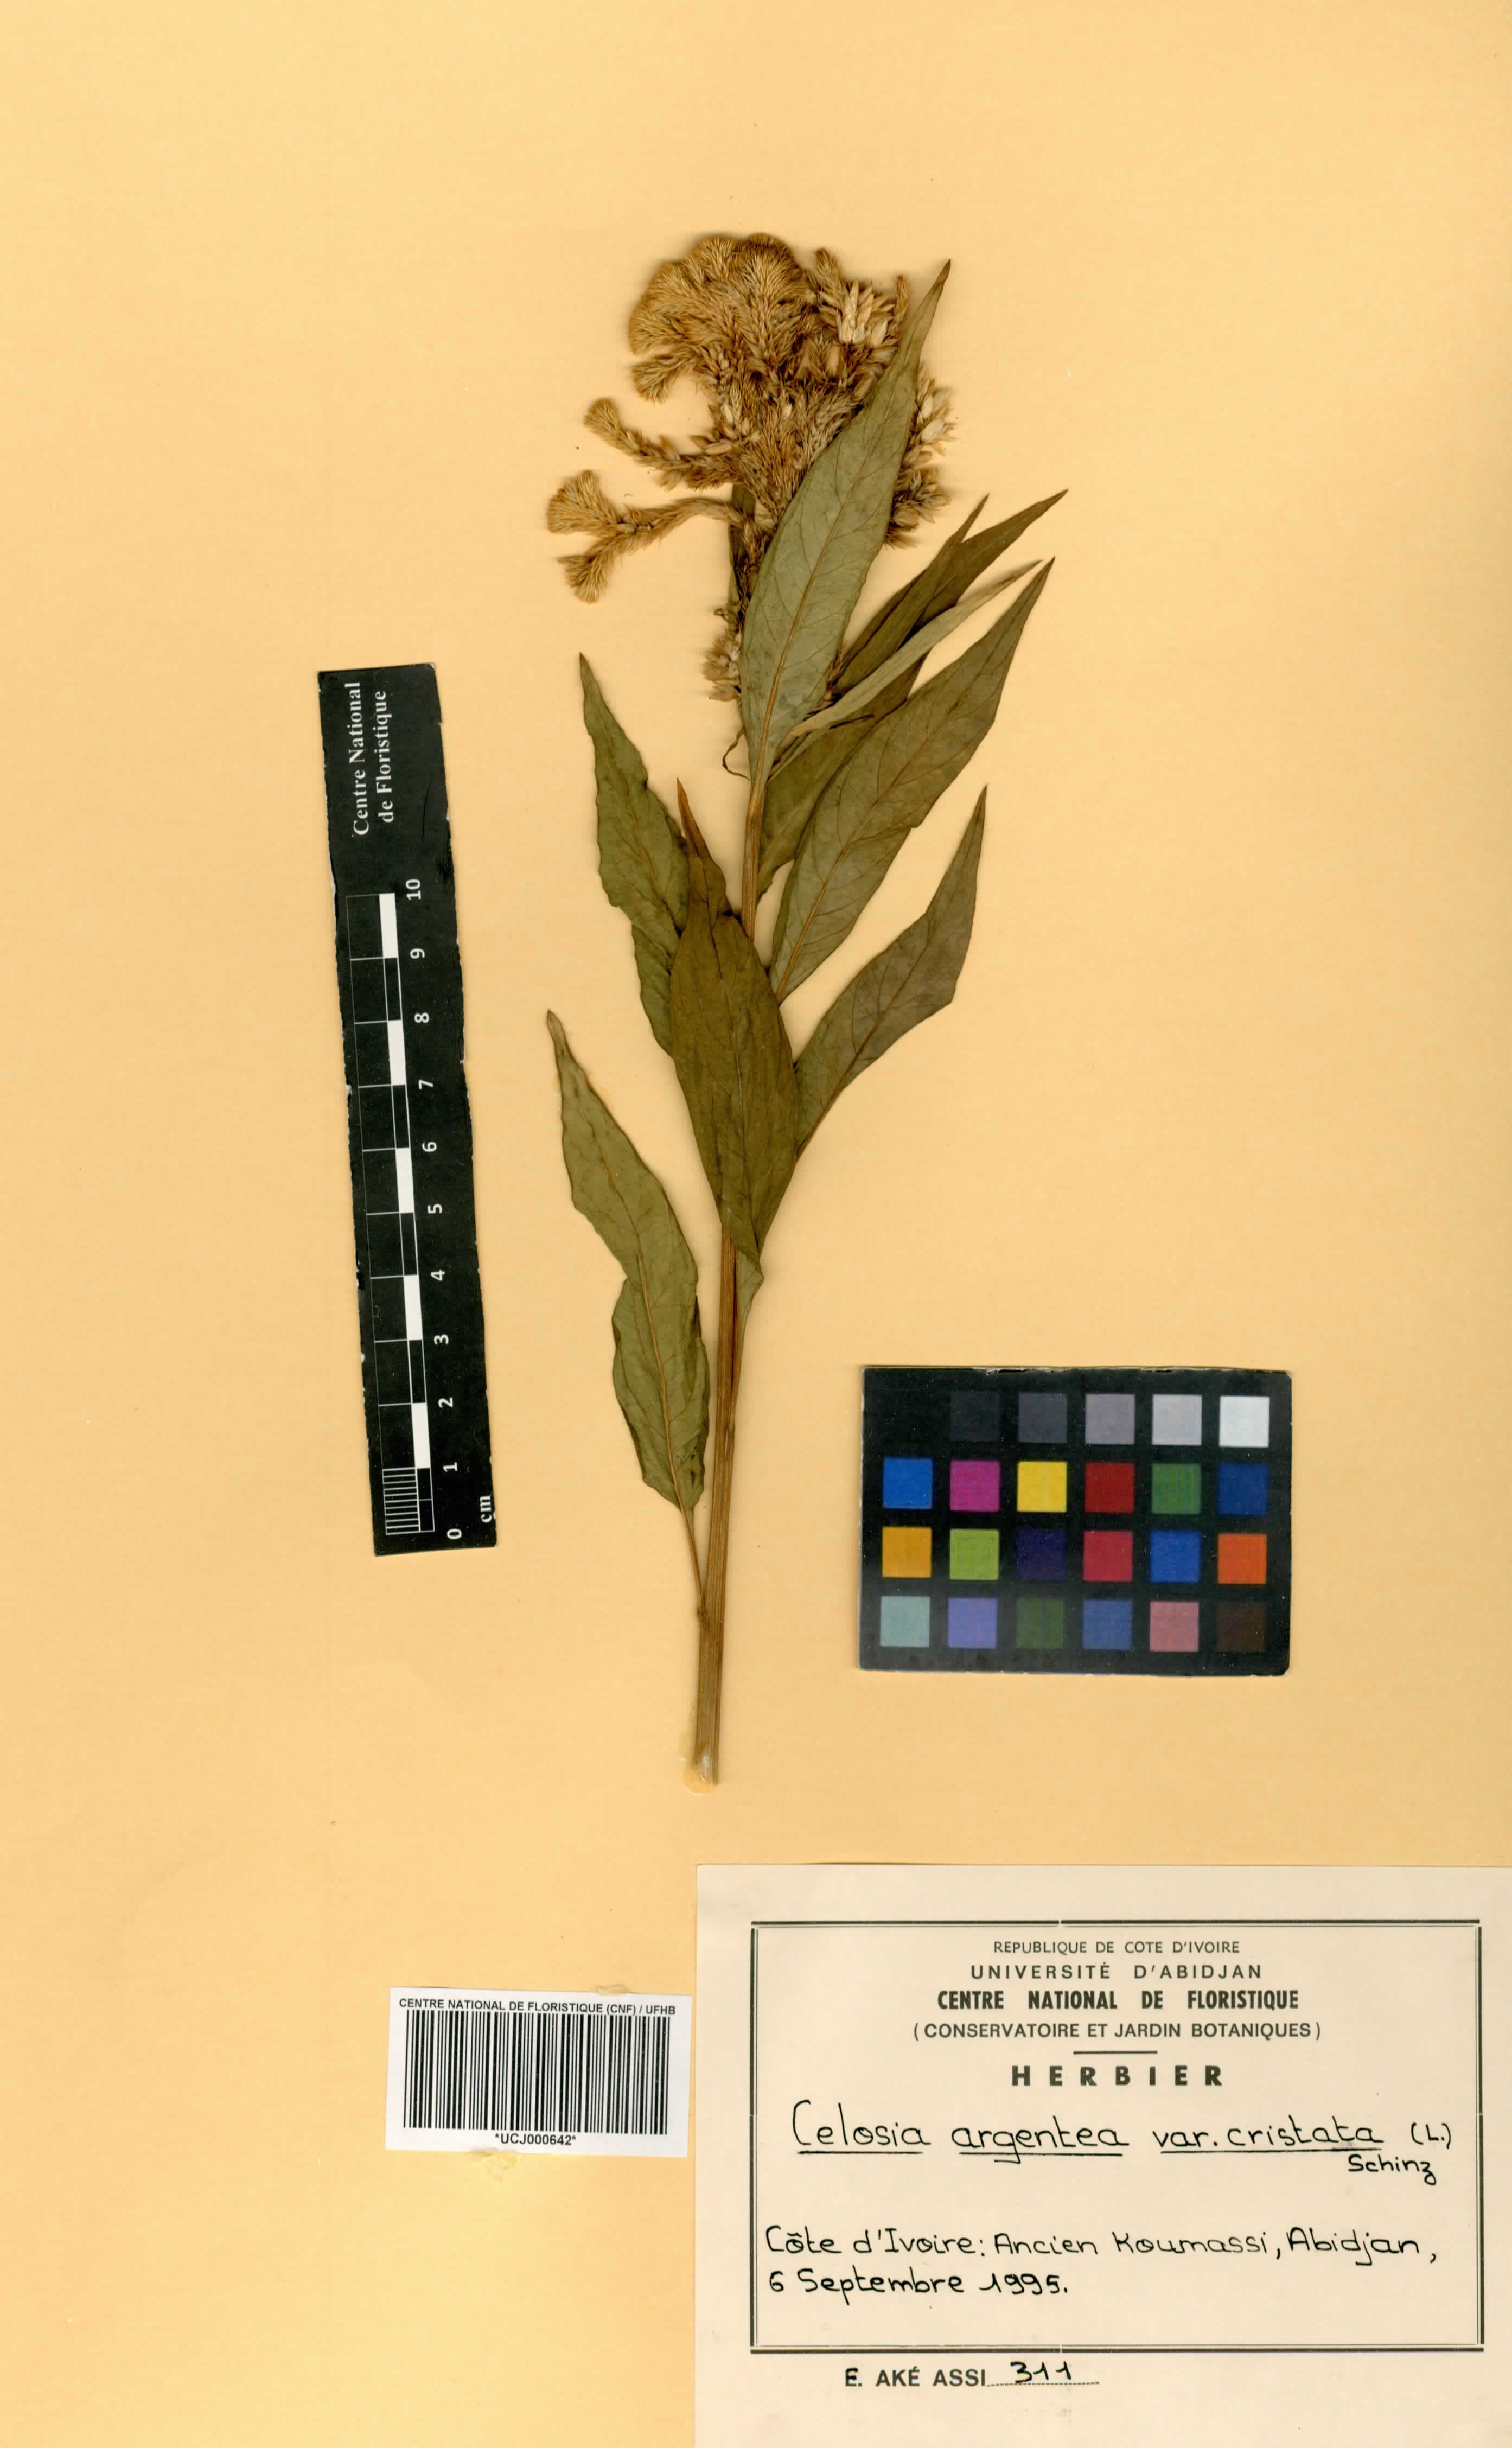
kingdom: Plantae
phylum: Tracheophyta
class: Magnoliopsida
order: Caryophyllales
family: Amaranthaceae
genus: Celosia
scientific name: Celosia argentea
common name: Feather cockscomb
